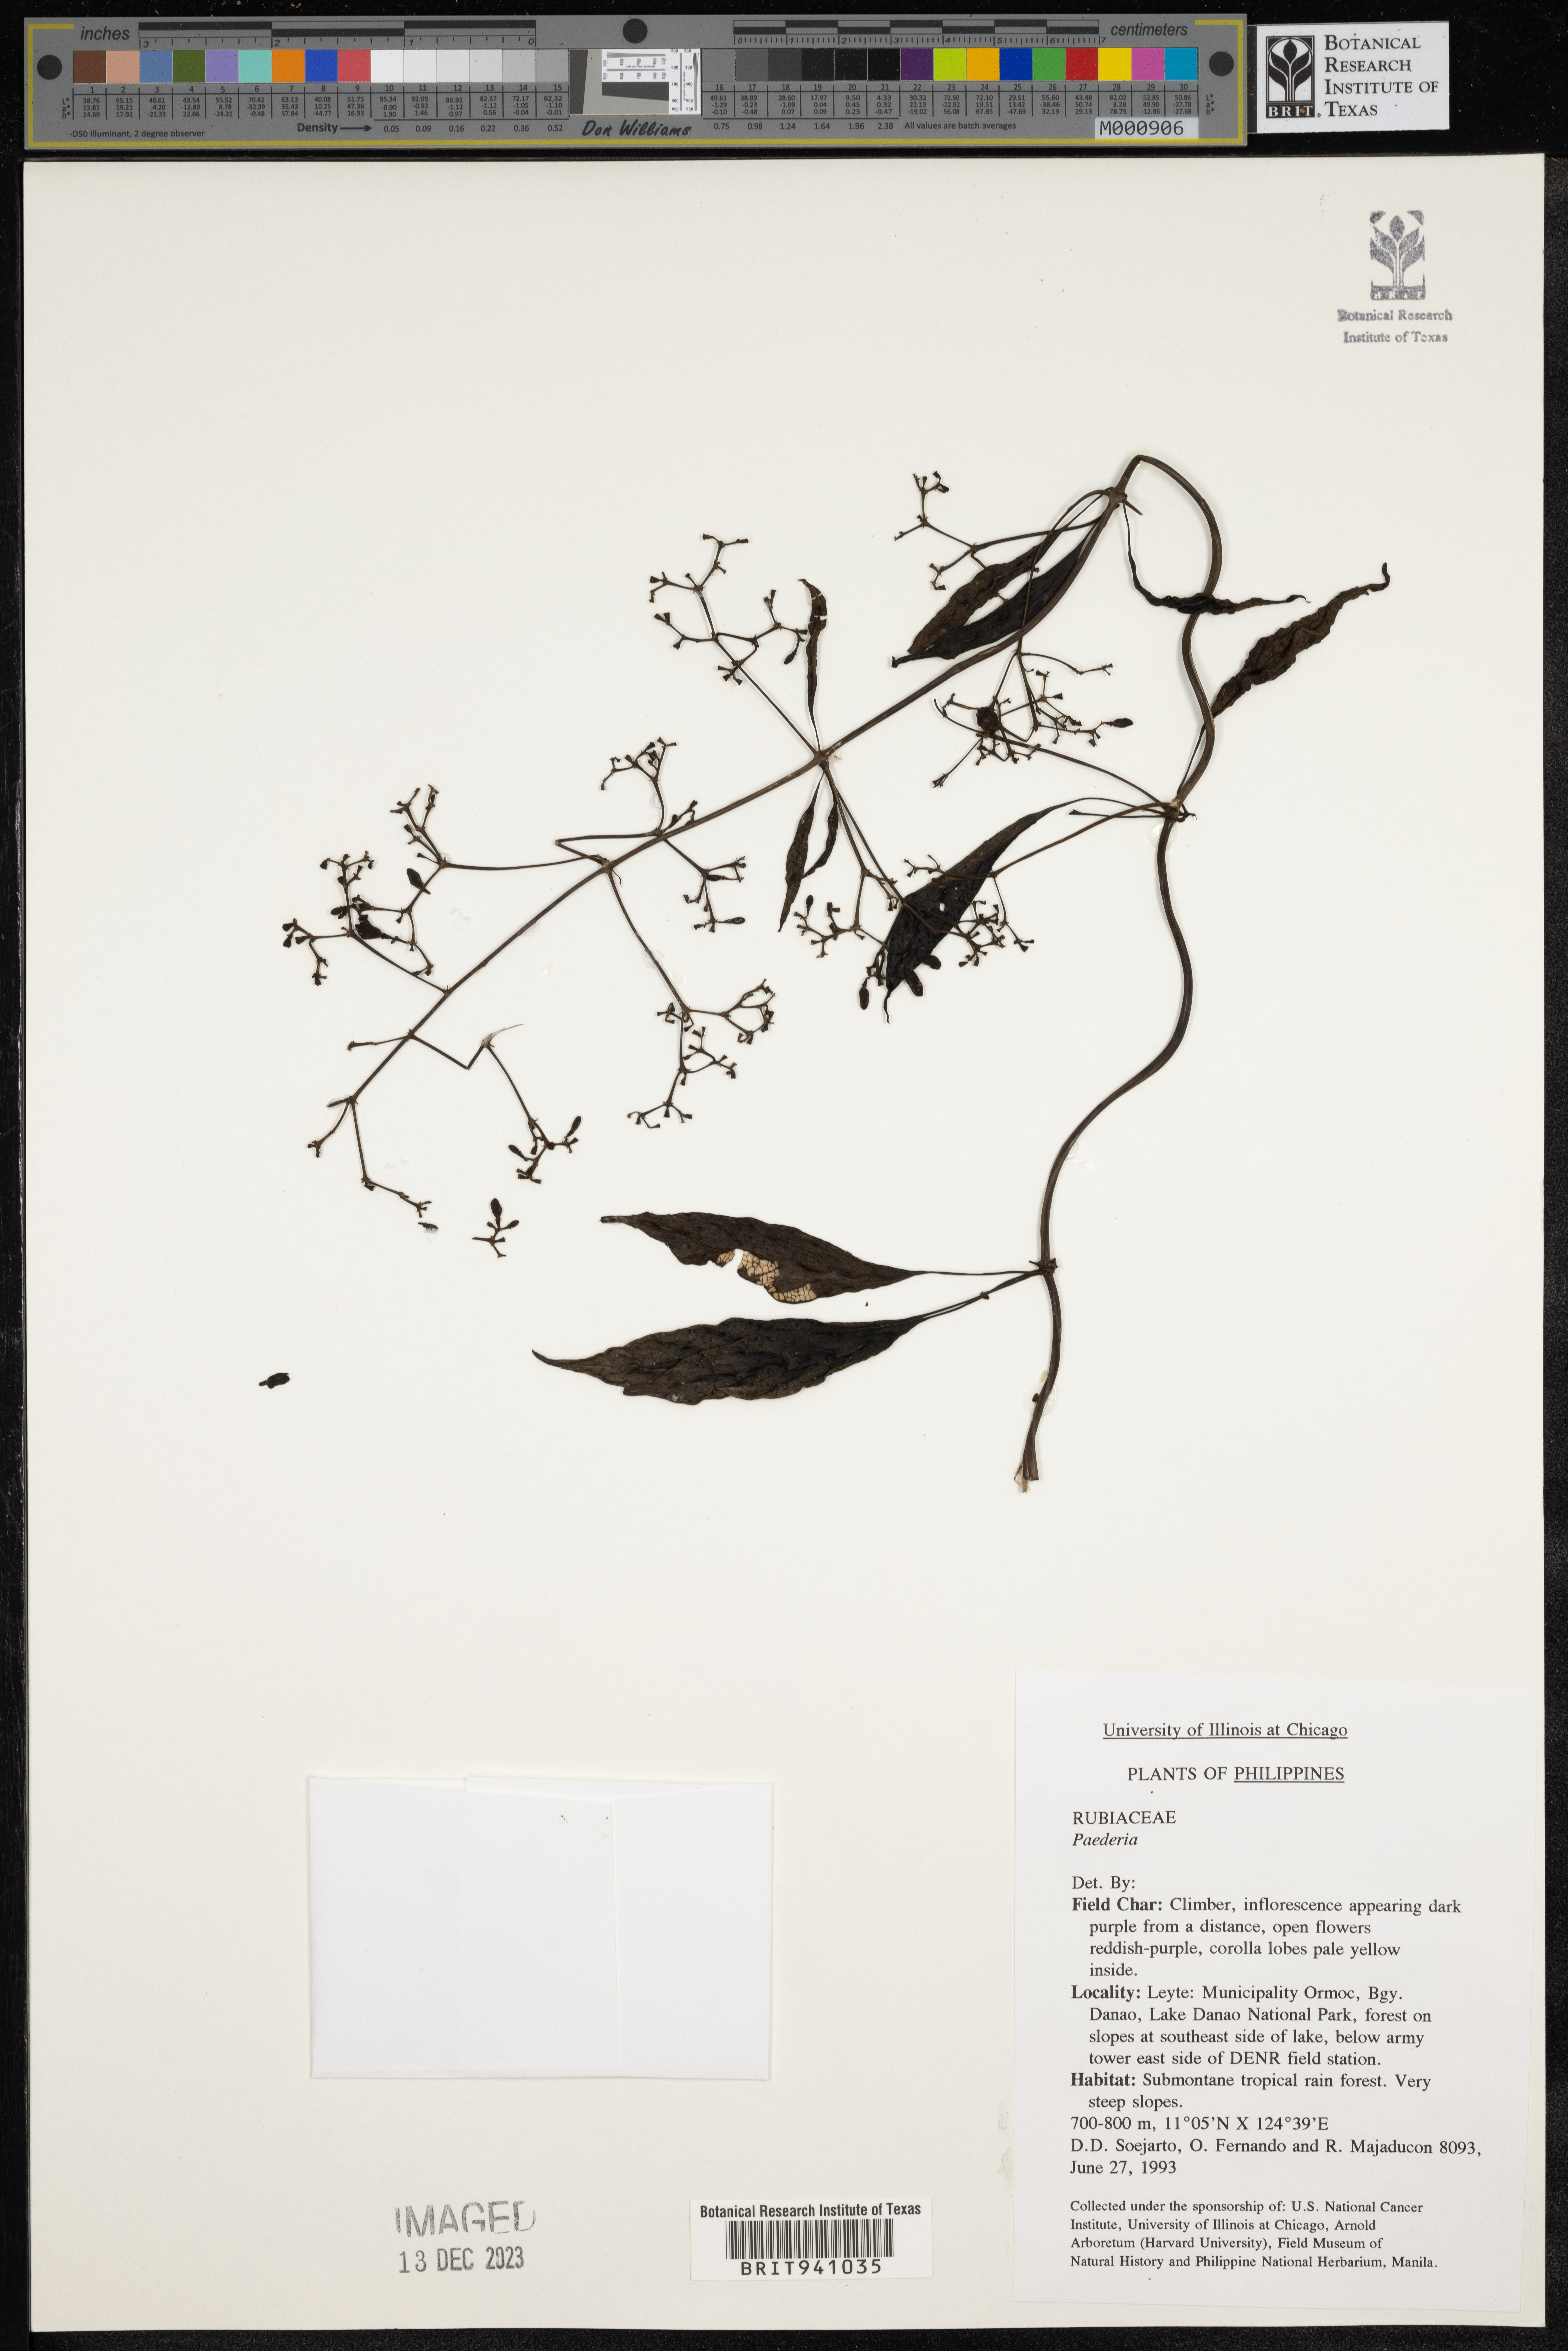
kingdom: Plantae
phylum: Tracheophyta
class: Magnoliopsida
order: Gentianales
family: Rubiaceae
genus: Paederia
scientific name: Paederia
